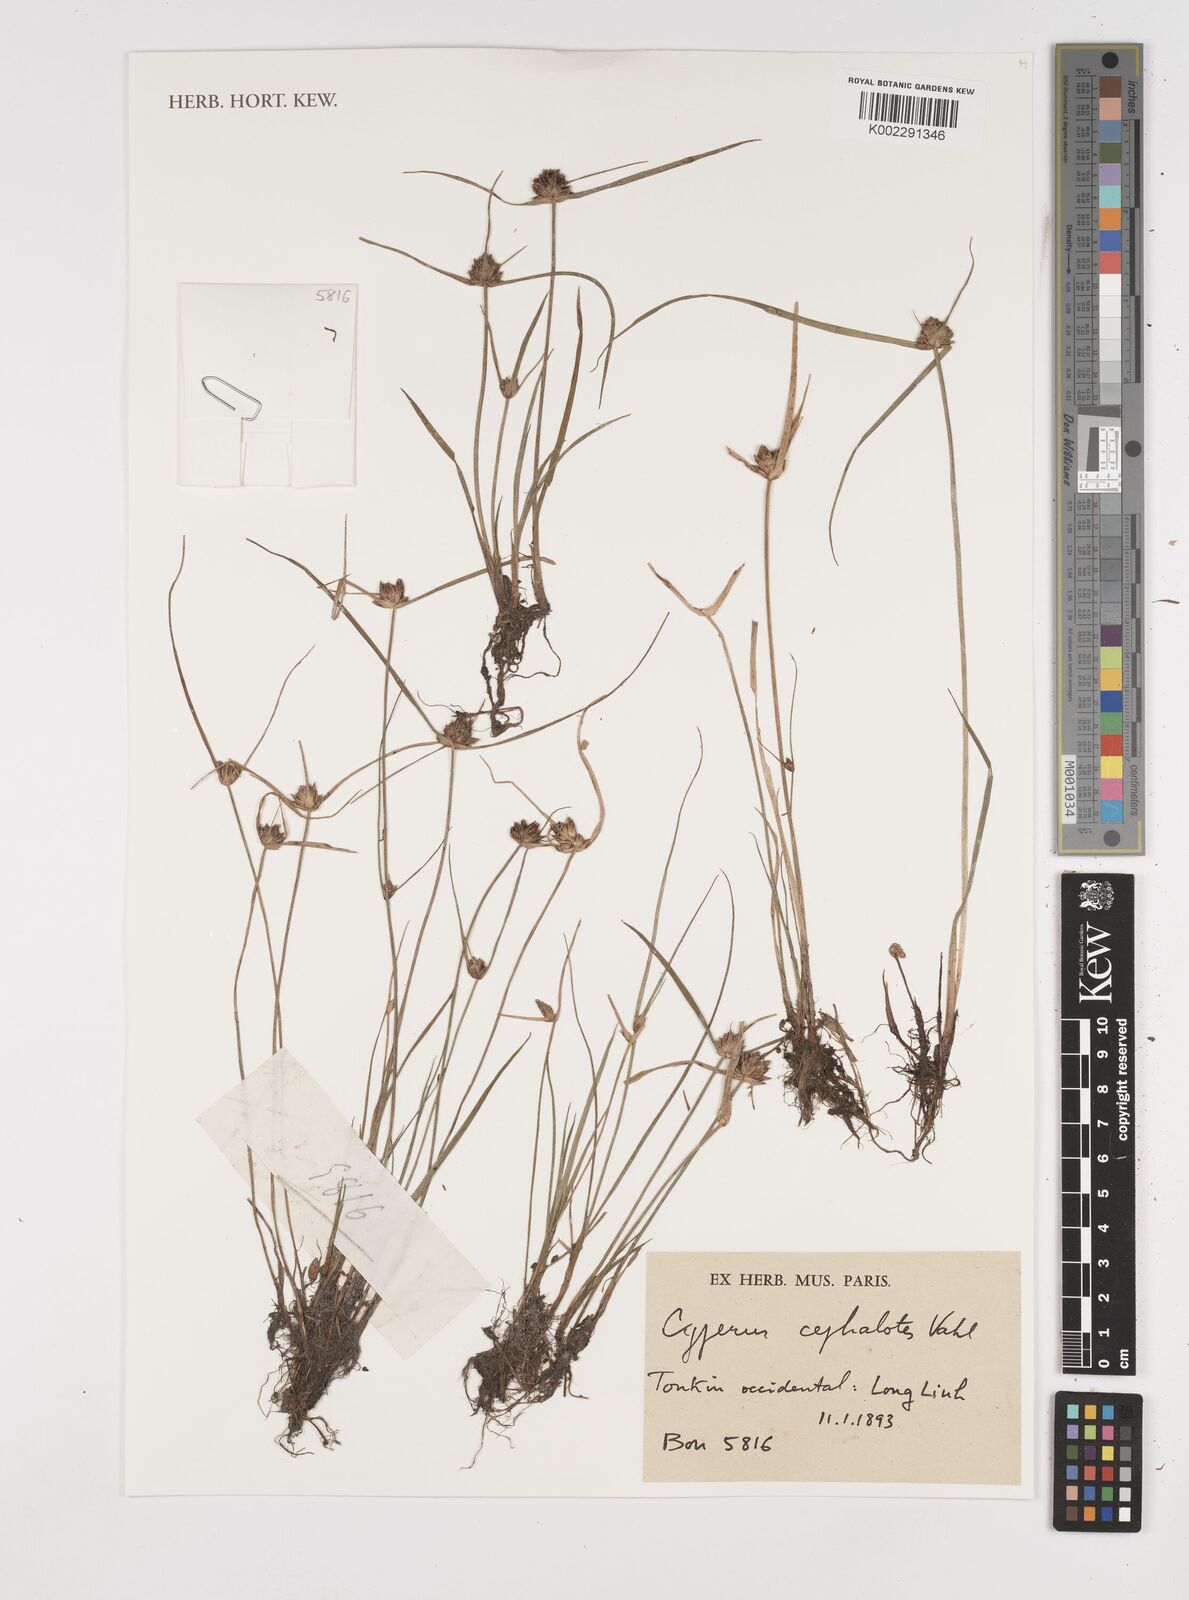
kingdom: Plantae
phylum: Tracheophyta
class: Liliopsida
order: Poales
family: Cyperaceae
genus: Cyperus
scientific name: Cyperus cephalotes
